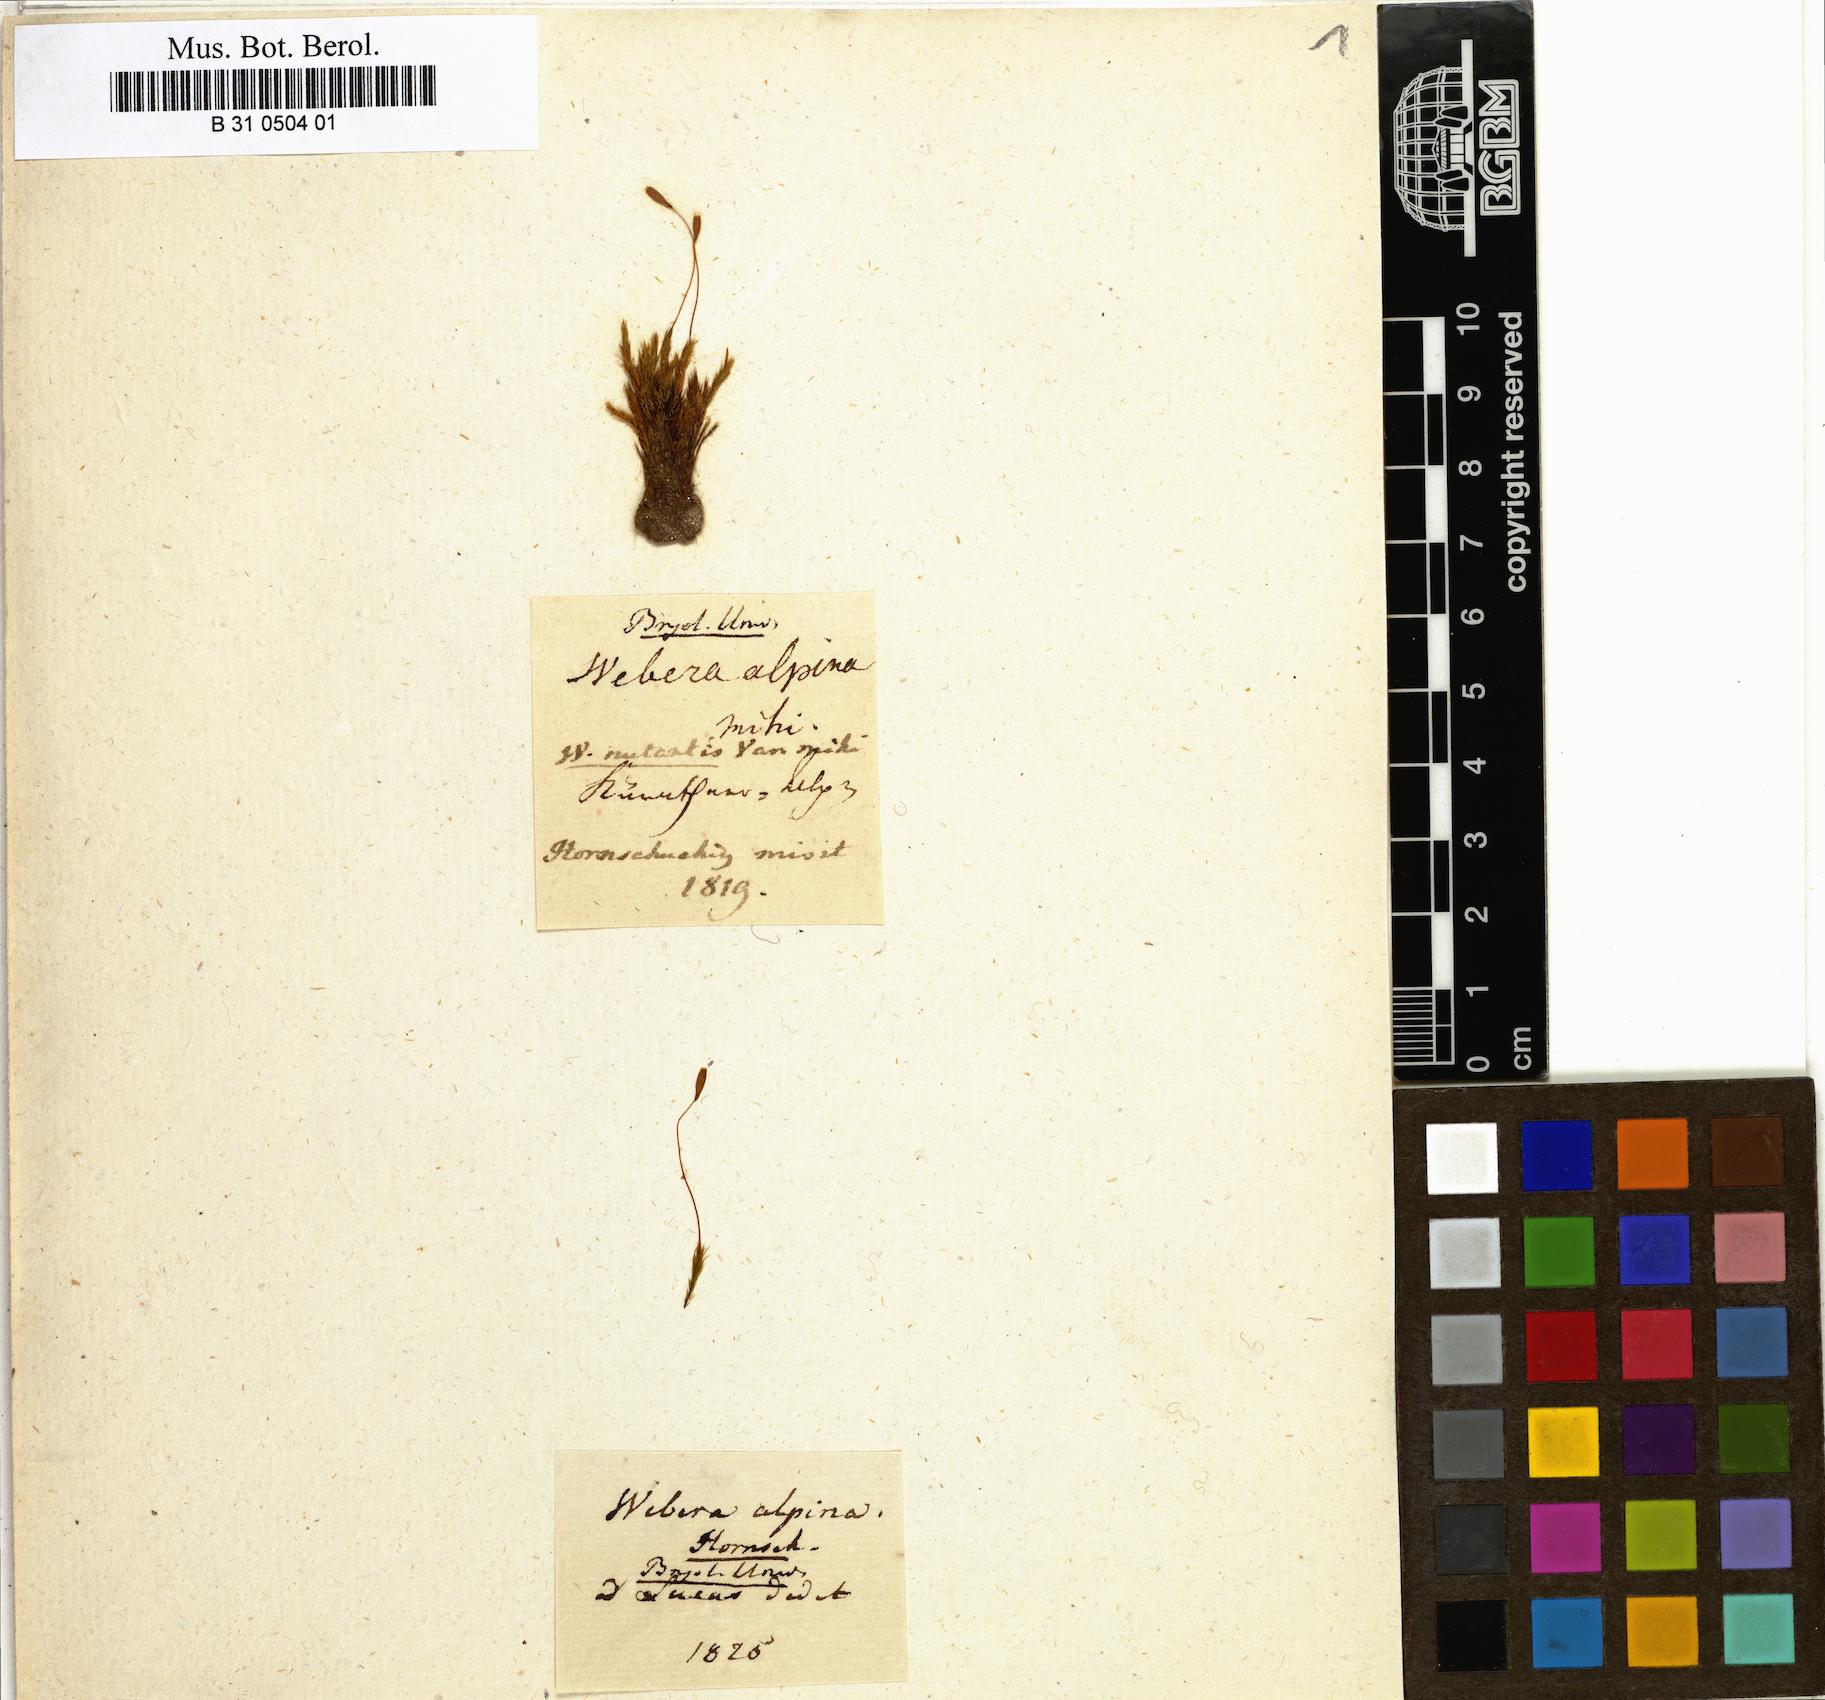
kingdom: Plantae
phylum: Bryophyta
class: Bryopsida
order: Bryales
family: Mniaceae
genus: Pohlia
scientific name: Pohlia longicolla
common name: Long-necked nodding moss
